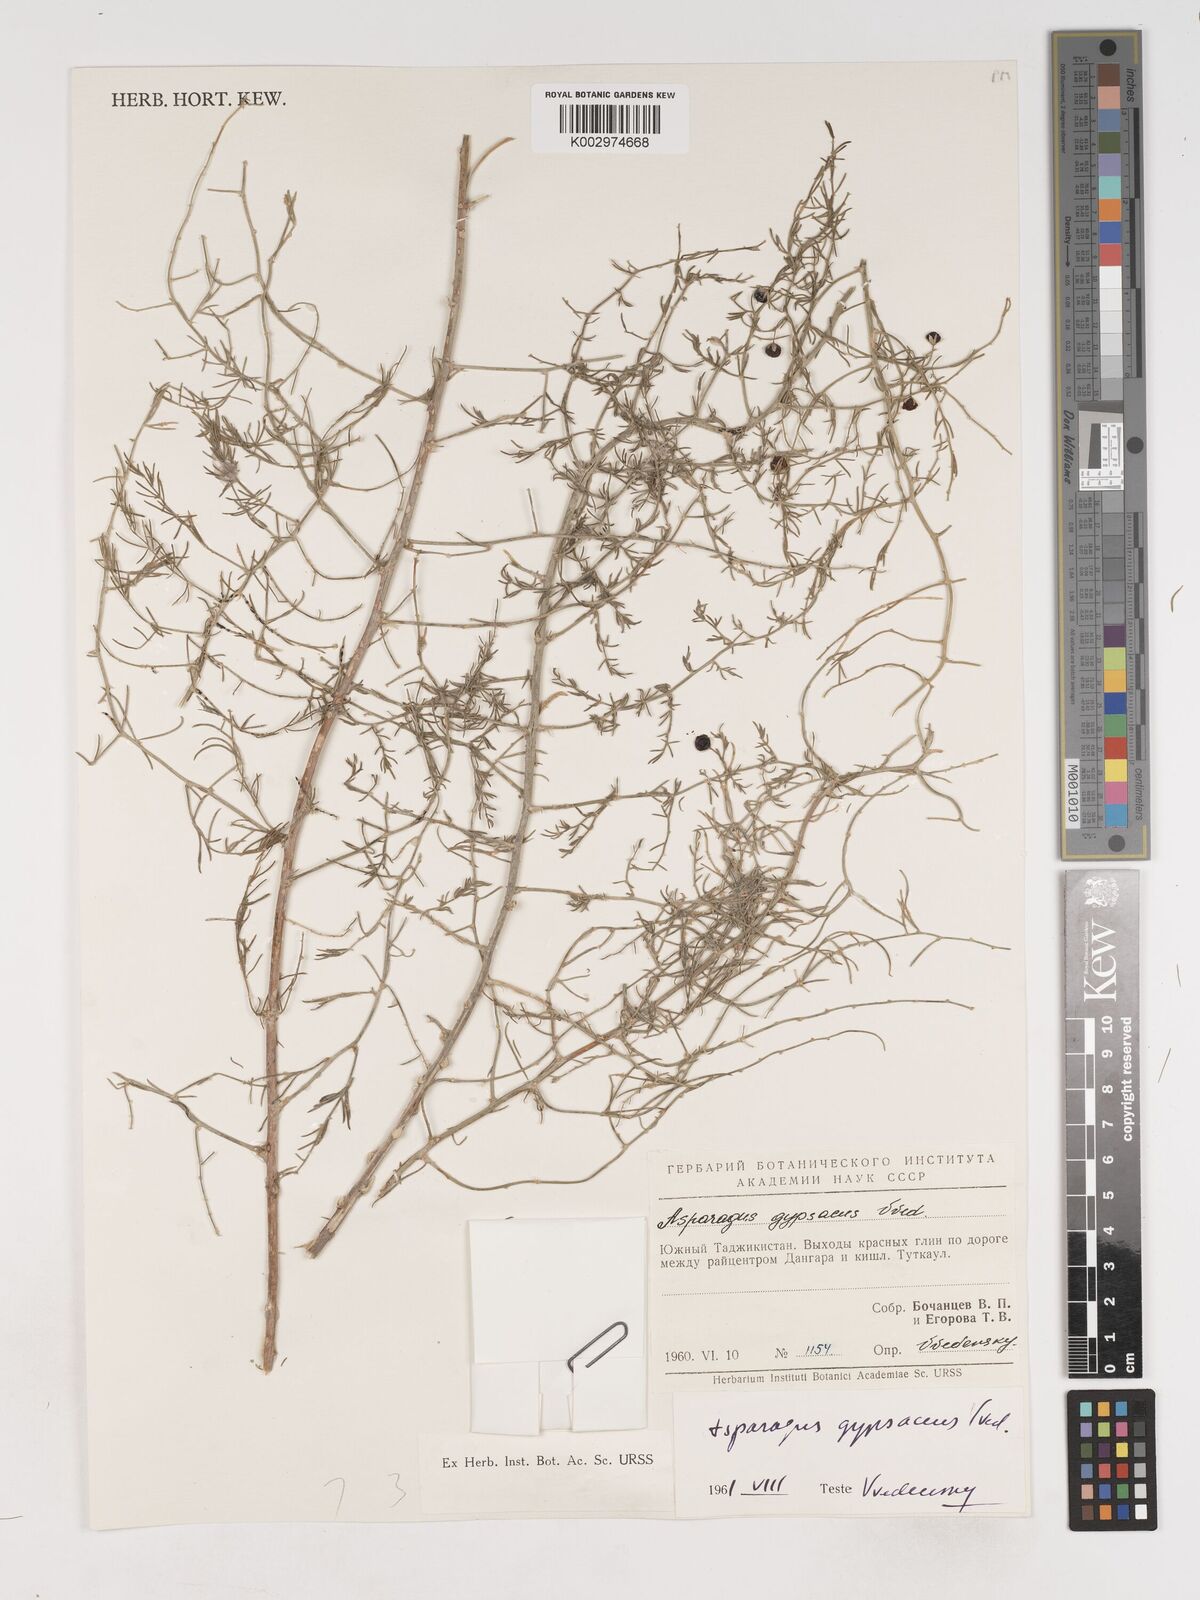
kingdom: Plantae
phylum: Tracheophyta
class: Liliopsida
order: Asparagales
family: Asparagaceae
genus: Asparagus
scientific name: Asparagus gypsaceus
